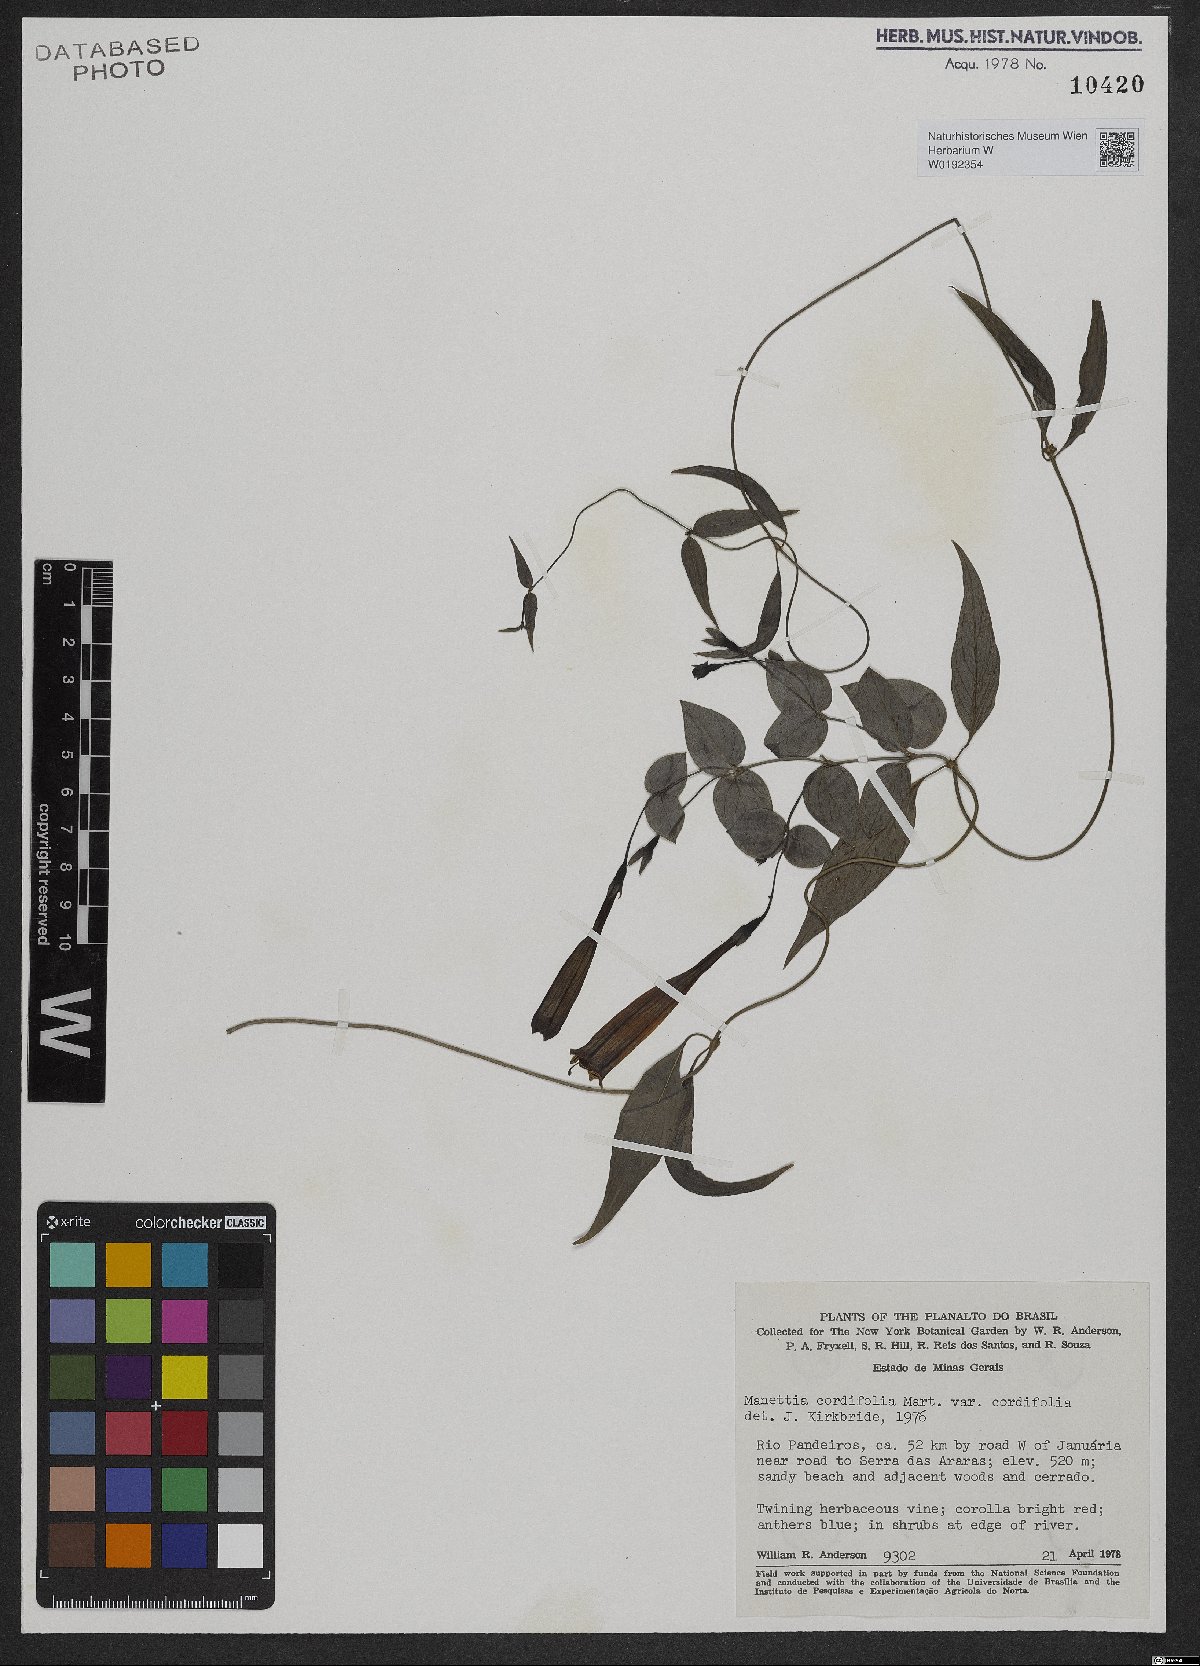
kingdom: Plantae
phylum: Tracheophyta
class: Magnoliopsida
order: Gentianales
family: Rubiaceae
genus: Manettia
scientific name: Manettia cordifolia
